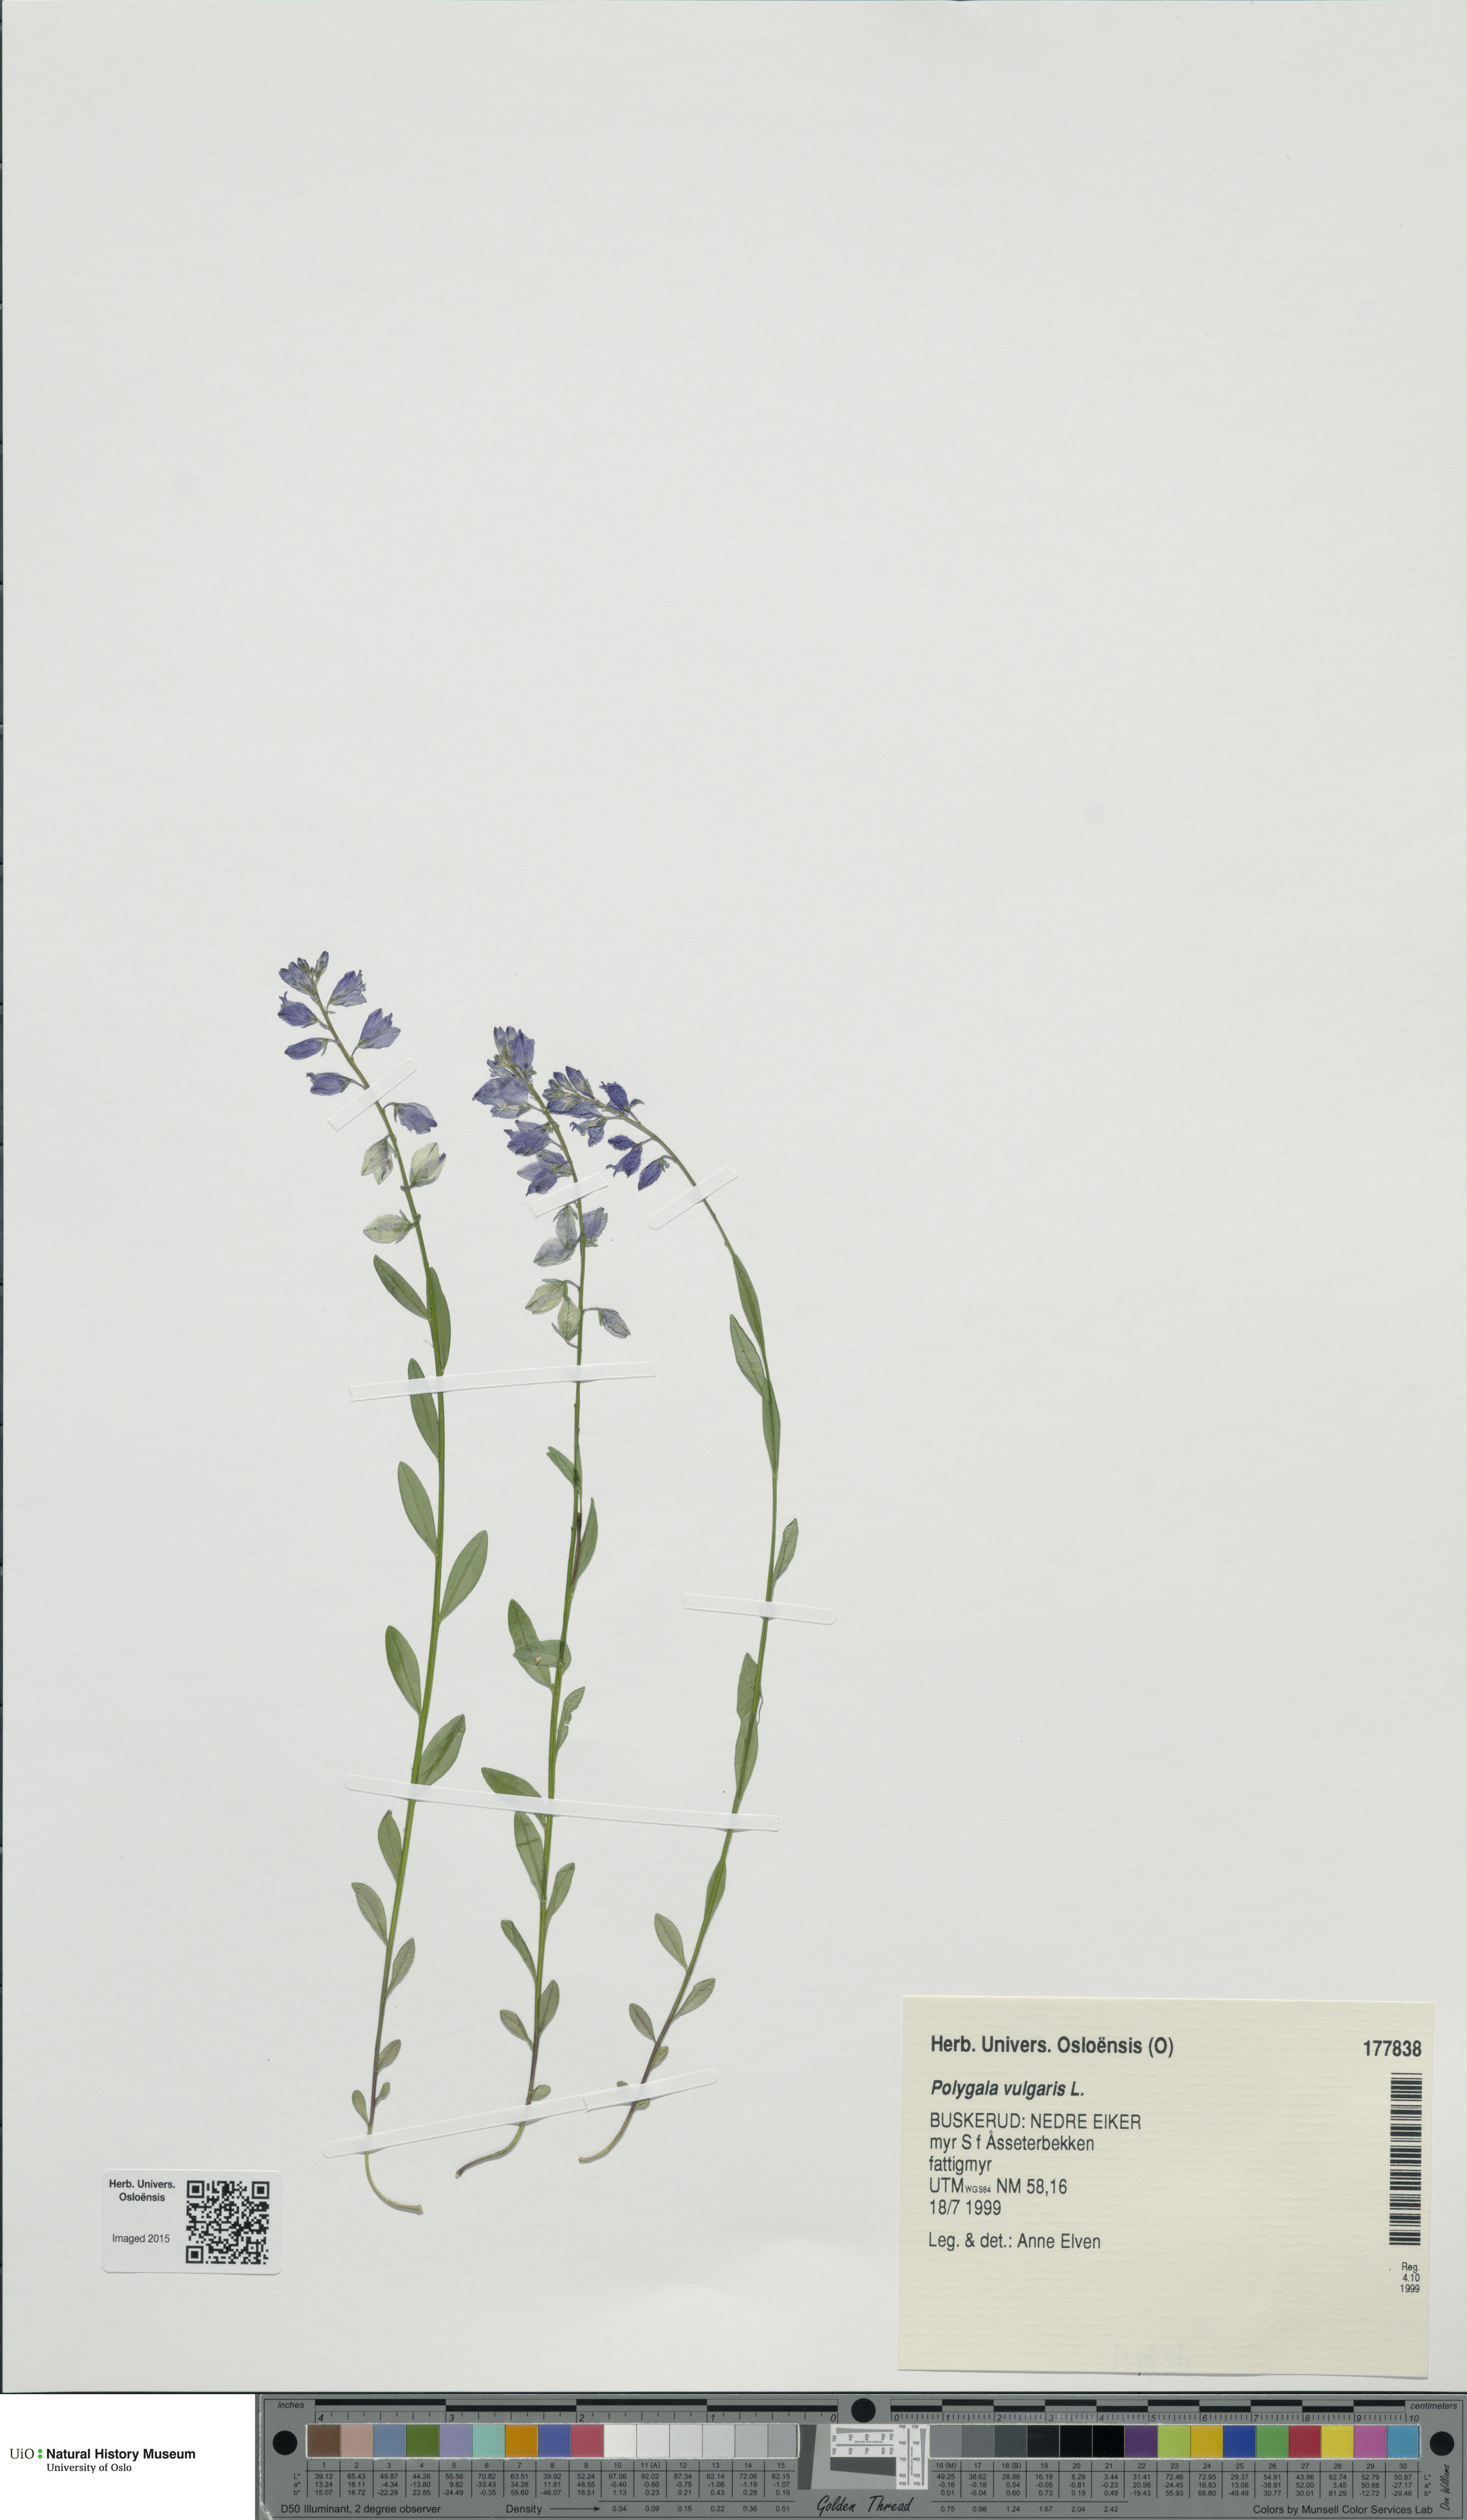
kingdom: Plantae
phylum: Tracheophyta
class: Magnoliopsida
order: Fabales
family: Polygalaceae
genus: Polygala
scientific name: Polygala vulgaris
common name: Common milkwort
